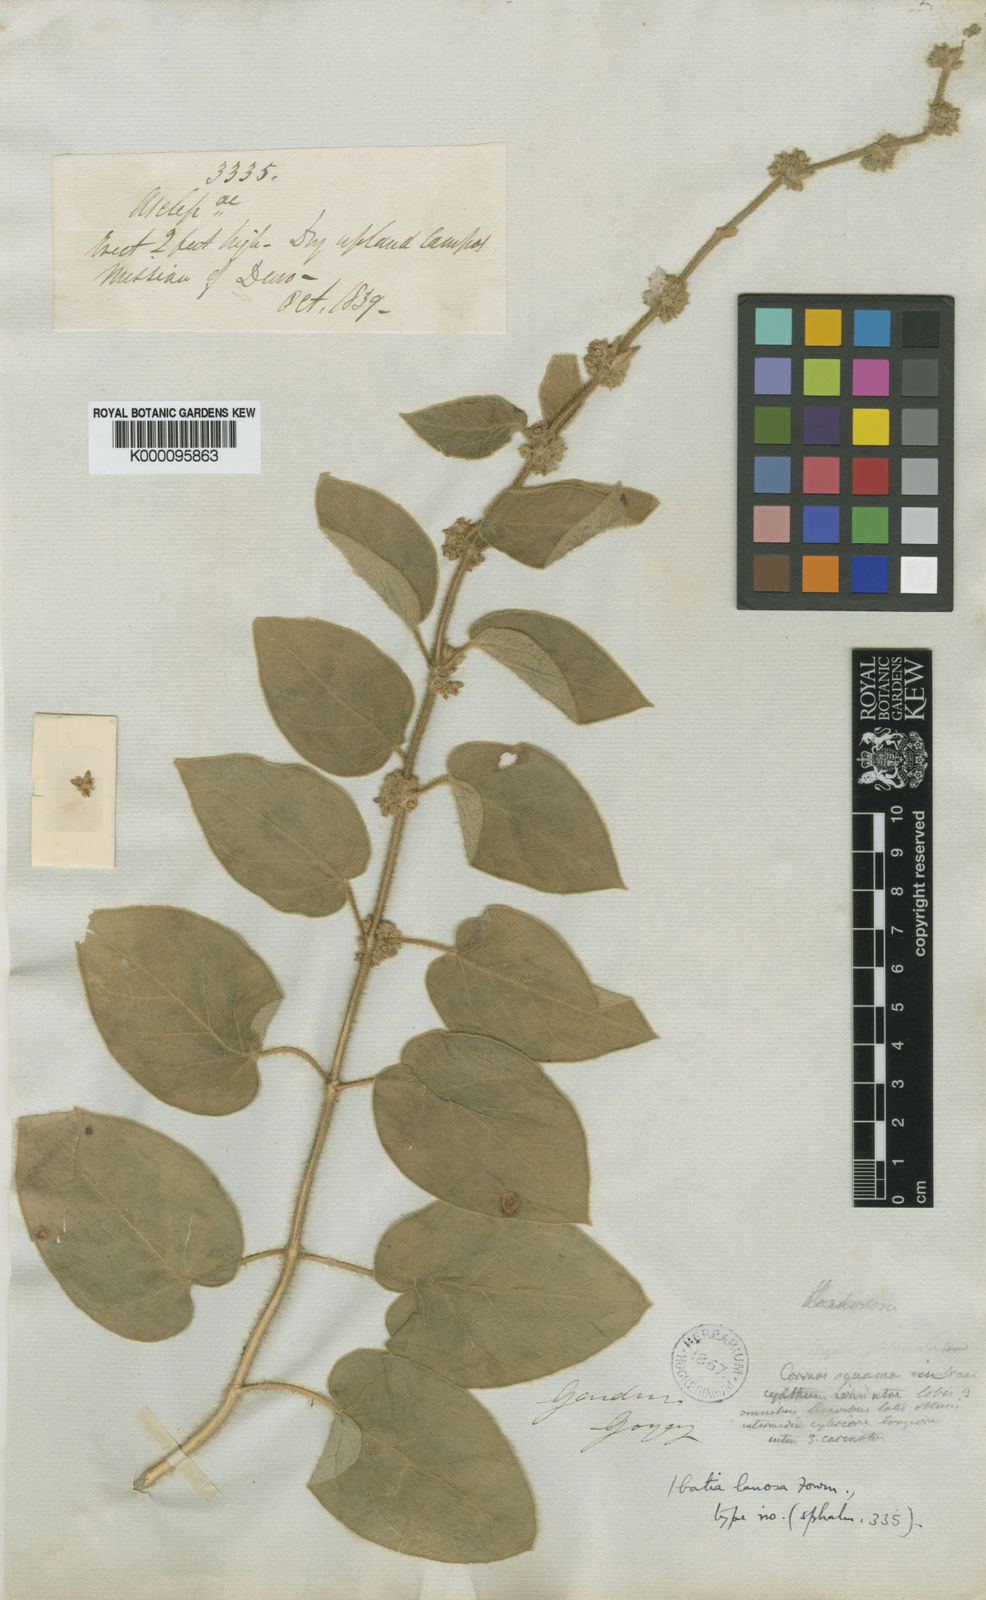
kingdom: Plantae
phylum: Tracheophyta
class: Magnoliopsida
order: Gentianales
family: Apocynaceae
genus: Ibatia
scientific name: Ibatia lanosa
